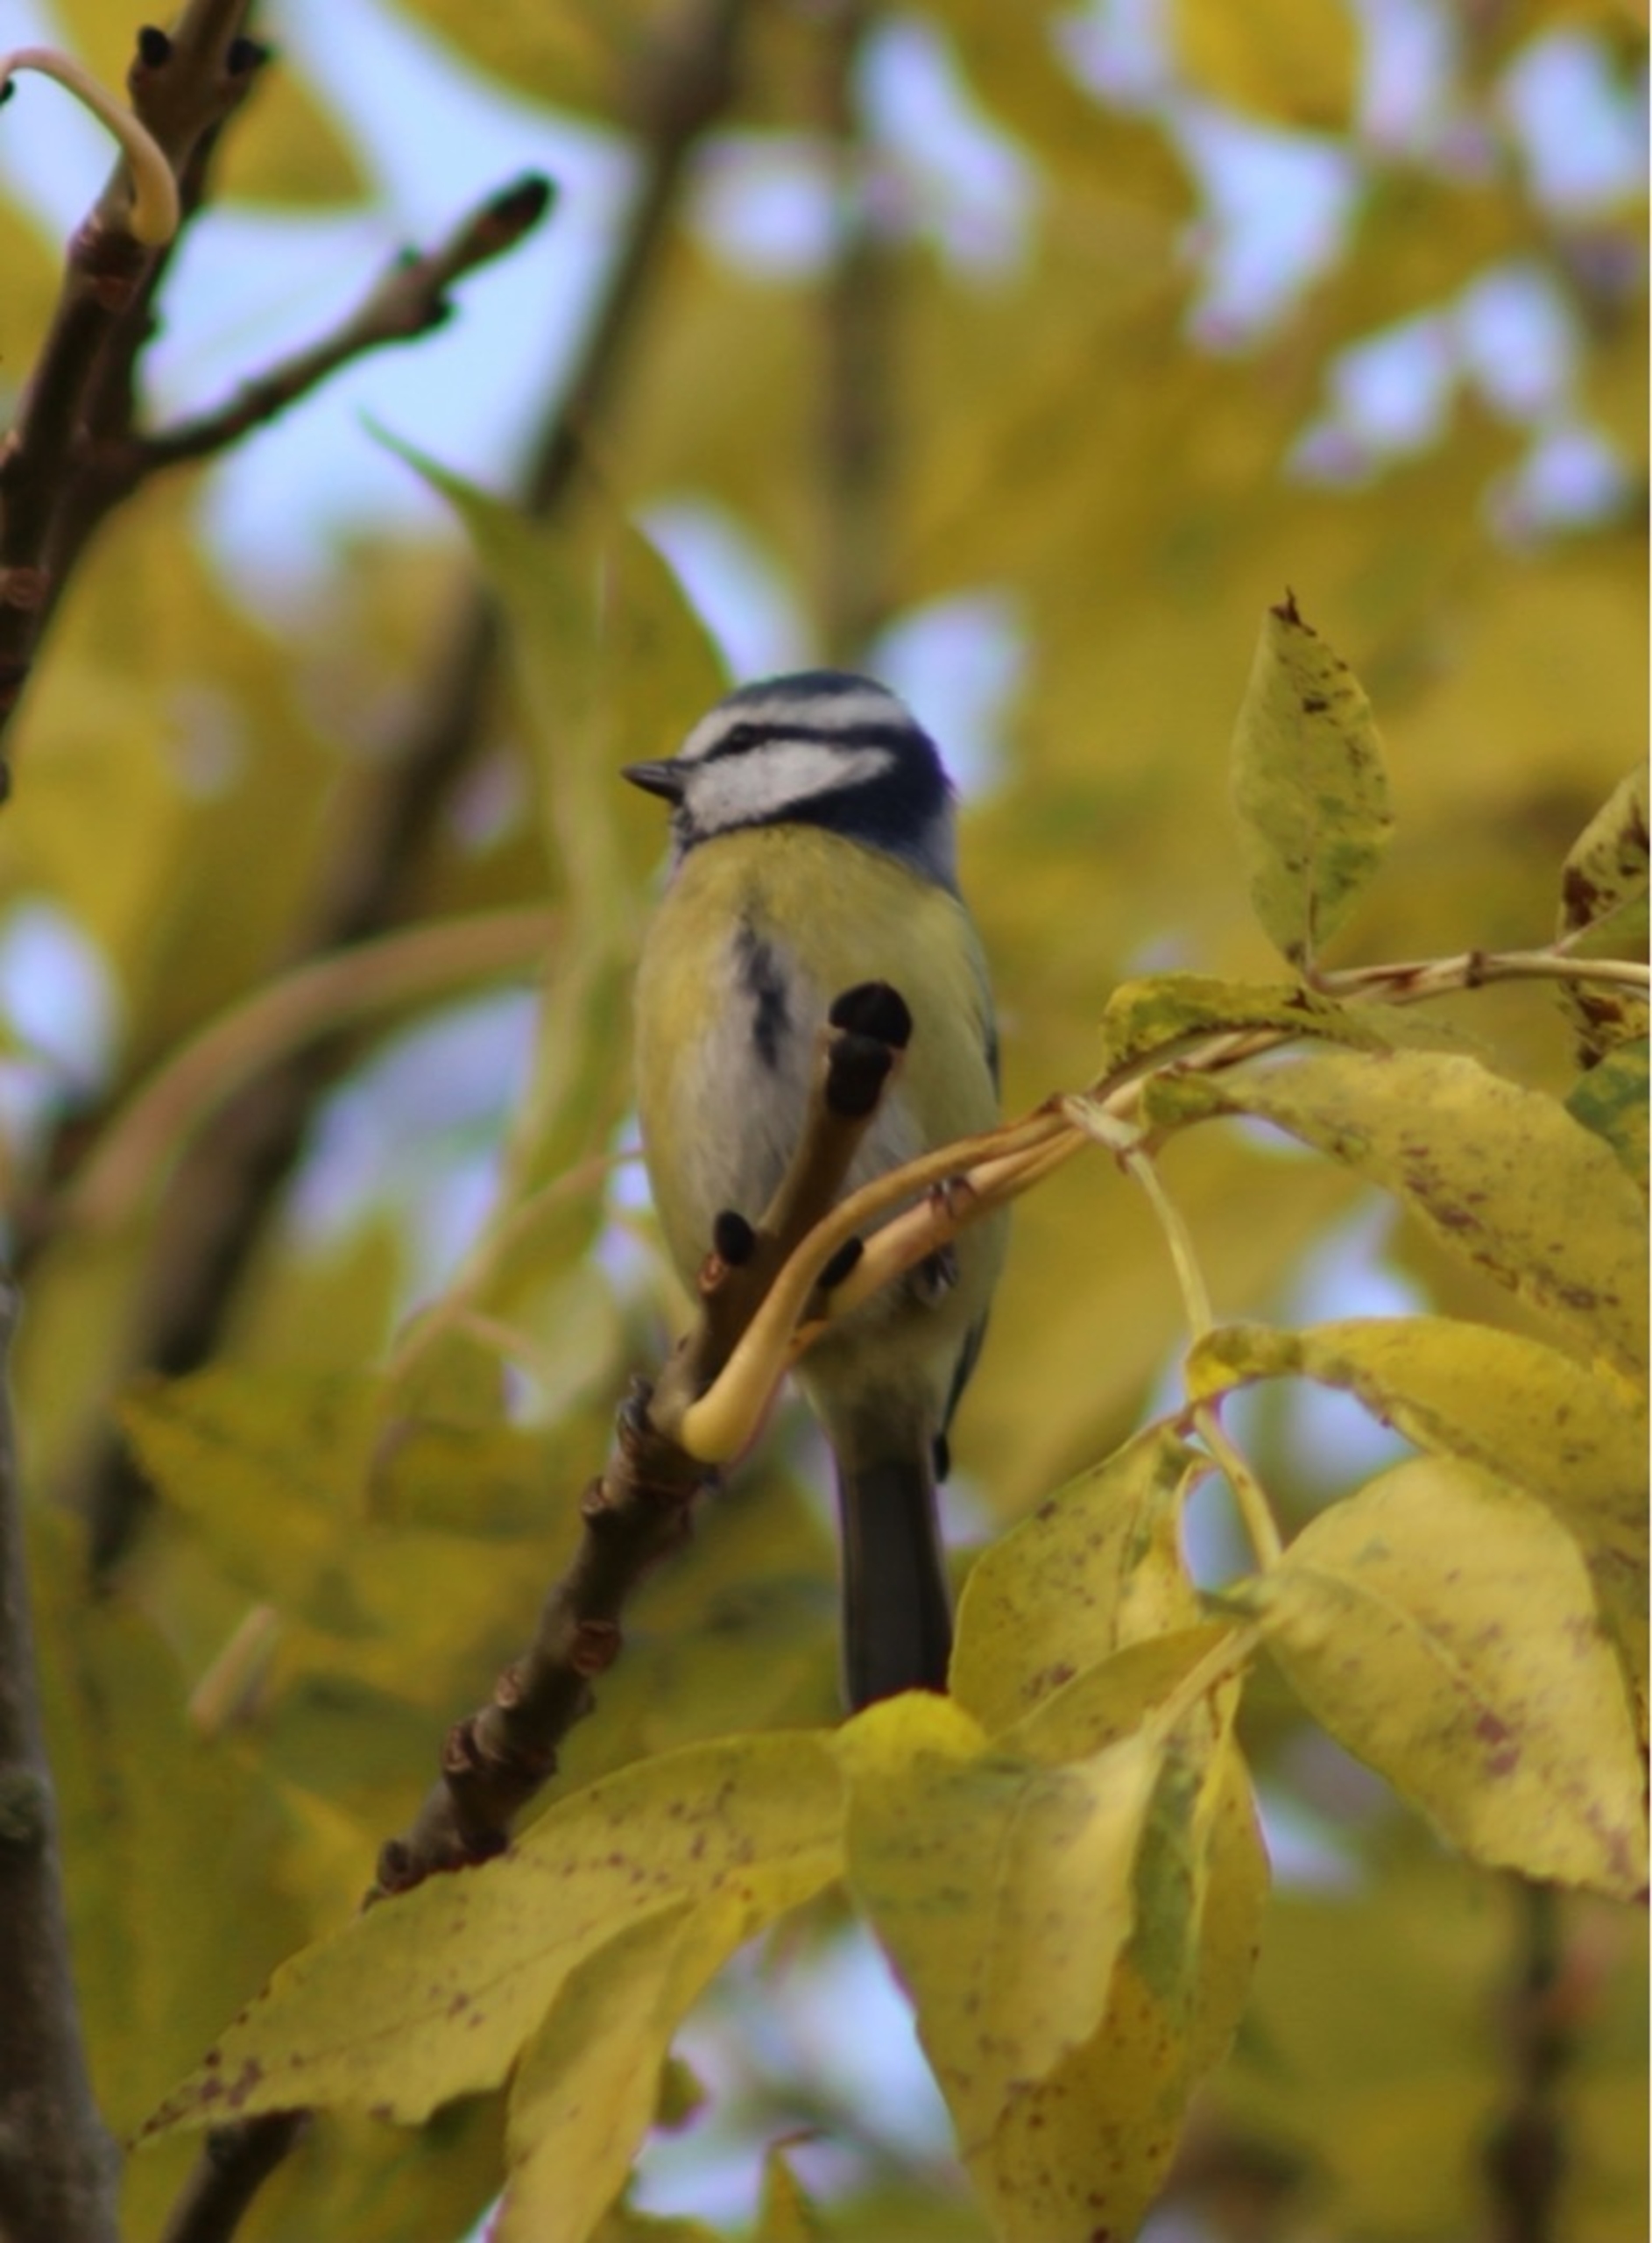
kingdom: Animalia
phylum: Chordata
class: Aves
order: Passeriformes
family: Paridae
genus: Cyanistes
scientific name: Cyanistes caeruleus
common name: Blåmejse
